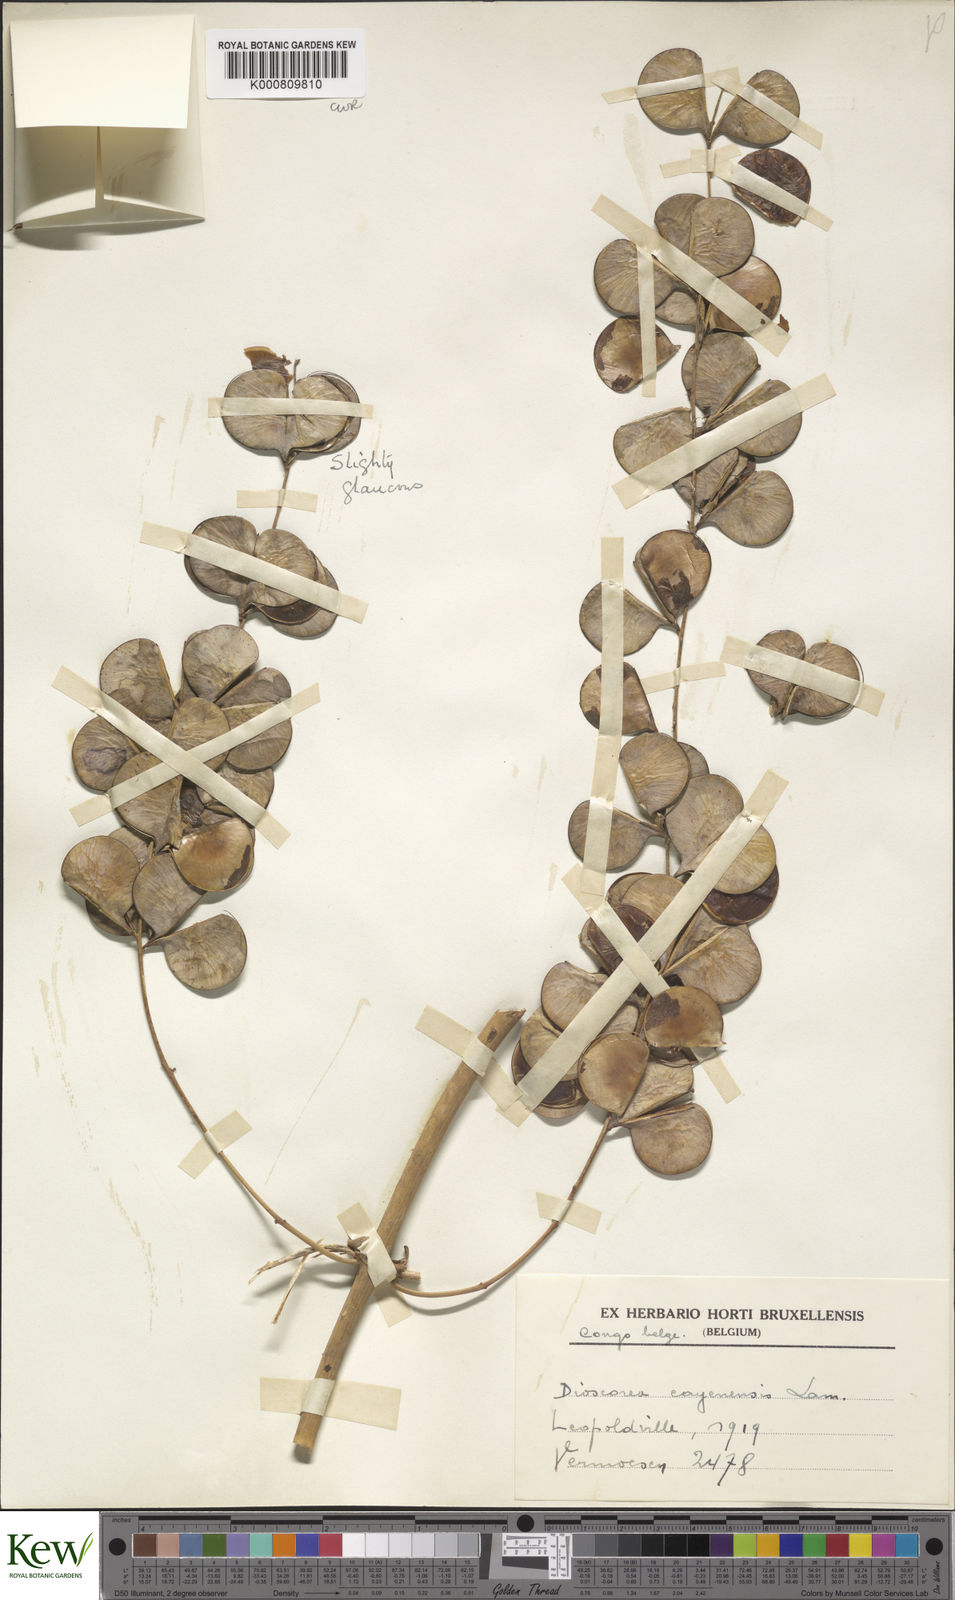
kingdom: Plantae
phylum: Tracheophyta
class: Liliopsida
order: Dioscoreales
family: Dioscoreaceae
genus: Dioscorea
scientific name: Dioscorea cayenensis
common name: Attoto yam
